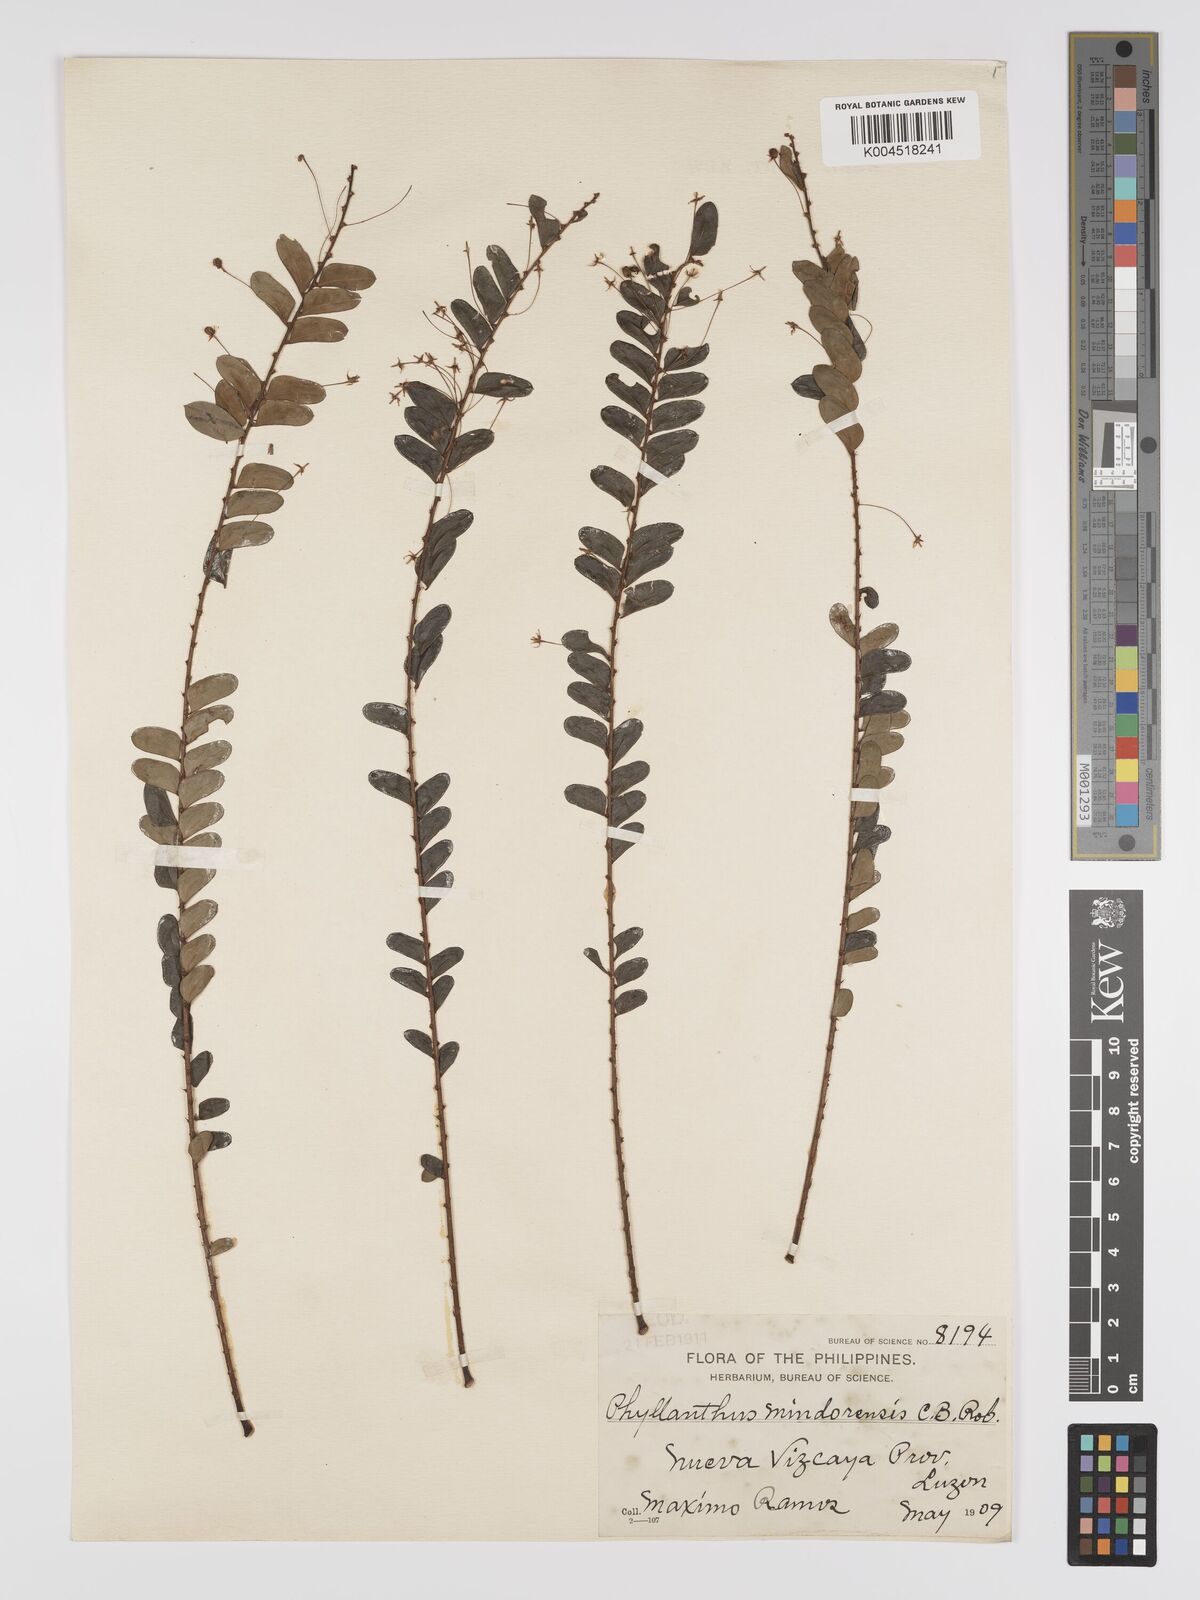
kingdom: Plantae
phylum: Tracheophyta
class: Magnoliopsida
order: Malpighiales
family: Phyllanthaceae
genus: Phyllanthus
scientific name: Phyllanthus celebicus
